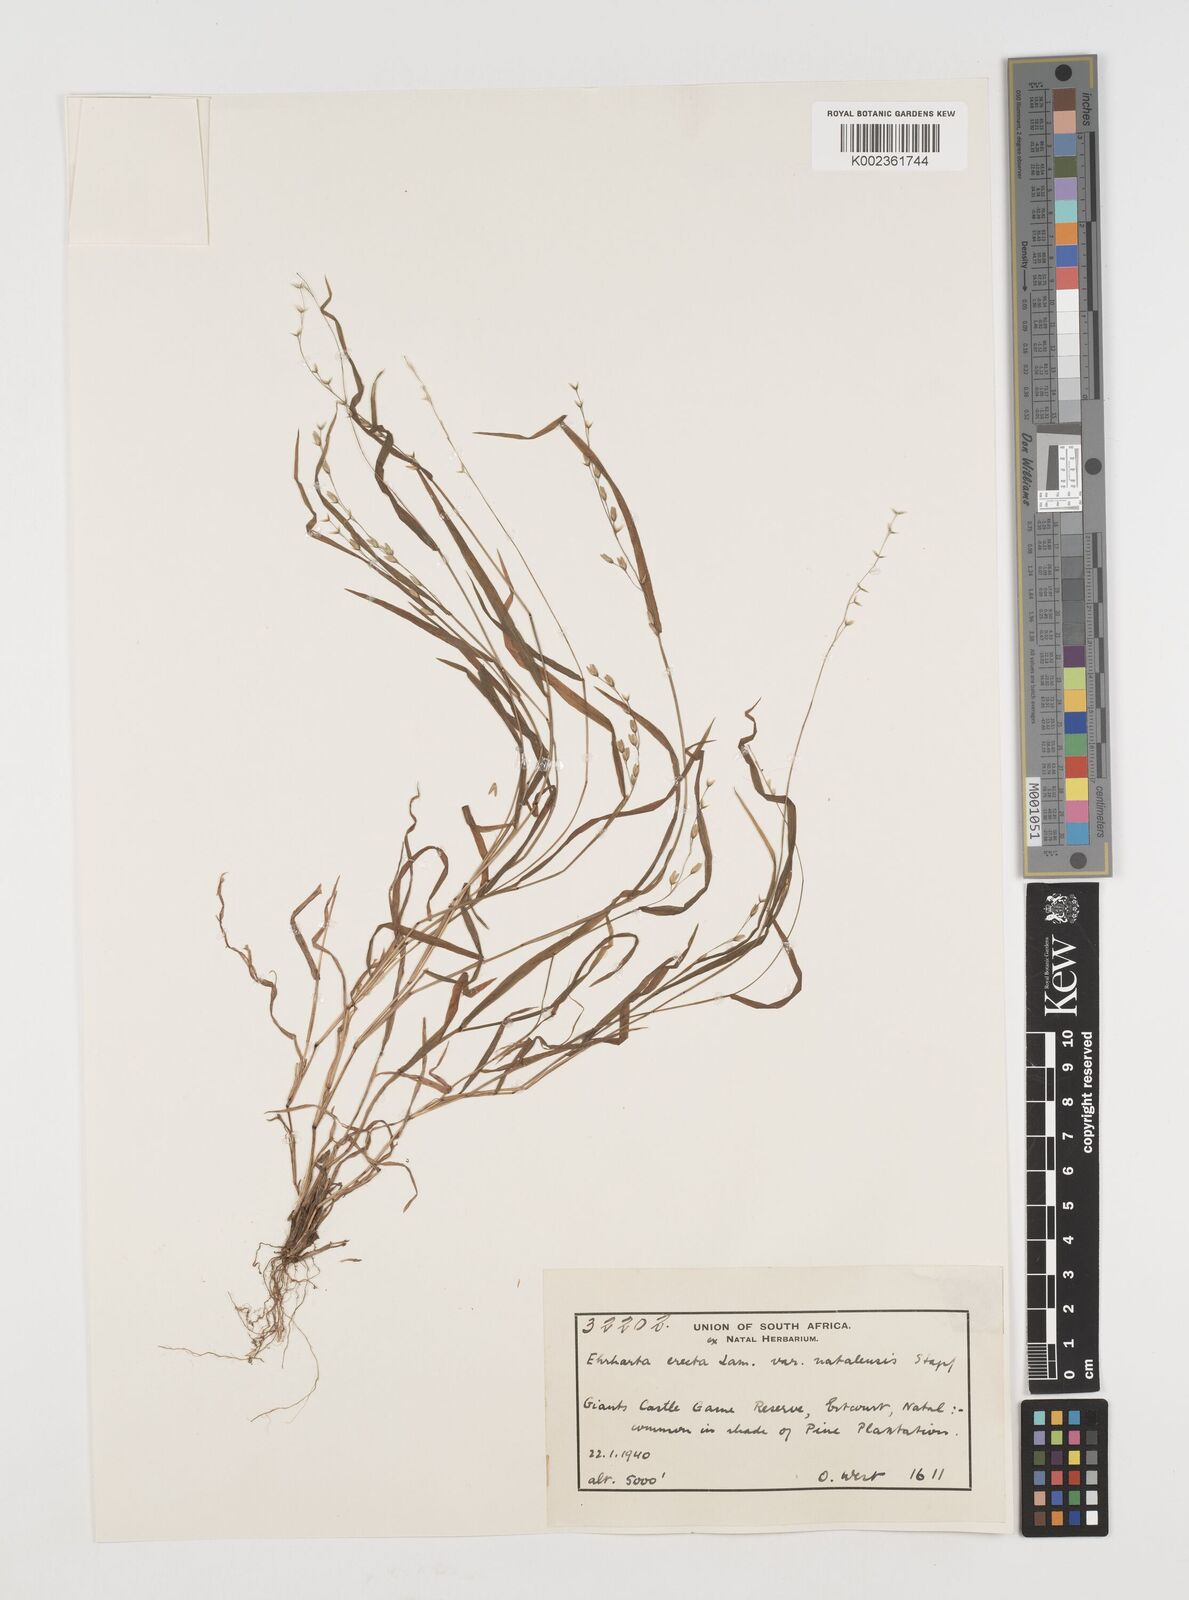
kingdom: Plantae
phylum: Tracheophyta
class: Liliopsida
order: Poales
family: Poaceae
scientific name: Poaceae
